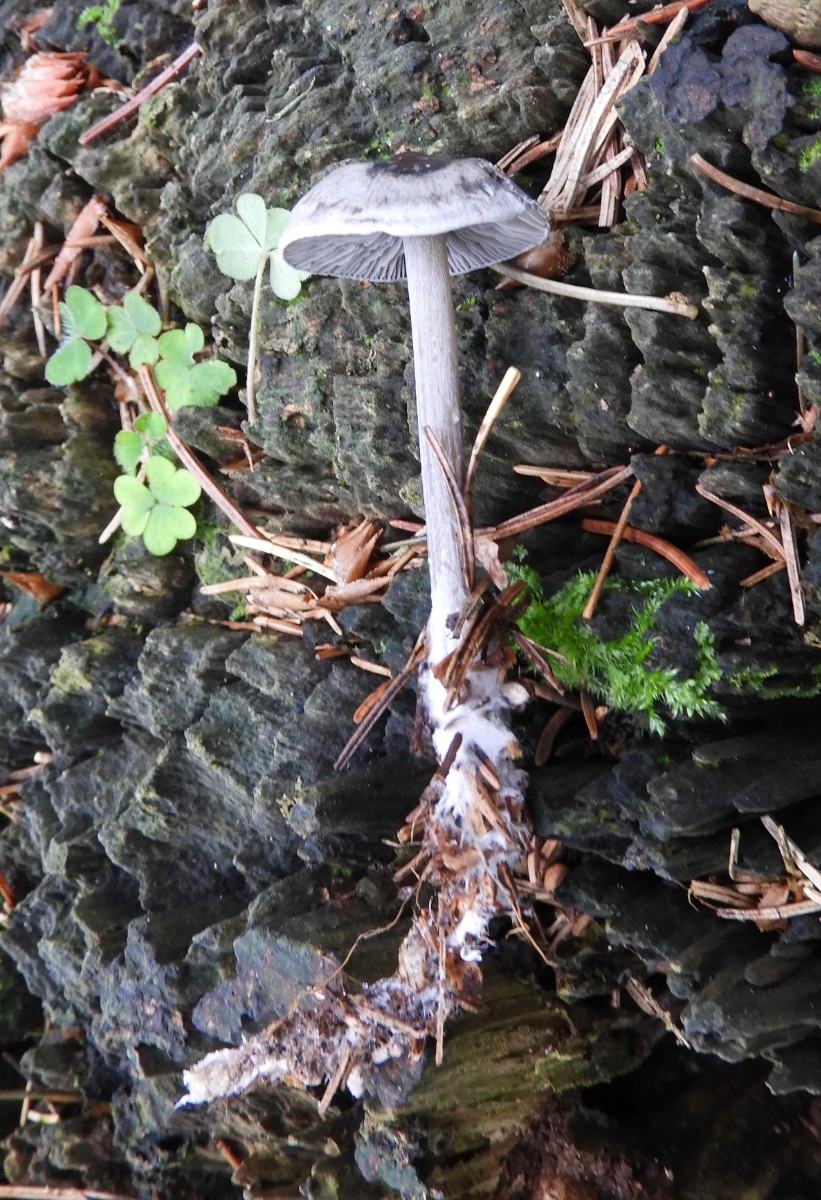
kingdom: Fungi
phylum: Basidiomycota
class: Agaricomycetes
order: Agaricales
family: Lyophyllaceae
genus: Tephrocybe
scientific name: Tephrocybe rancida
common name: mel-gråblad
